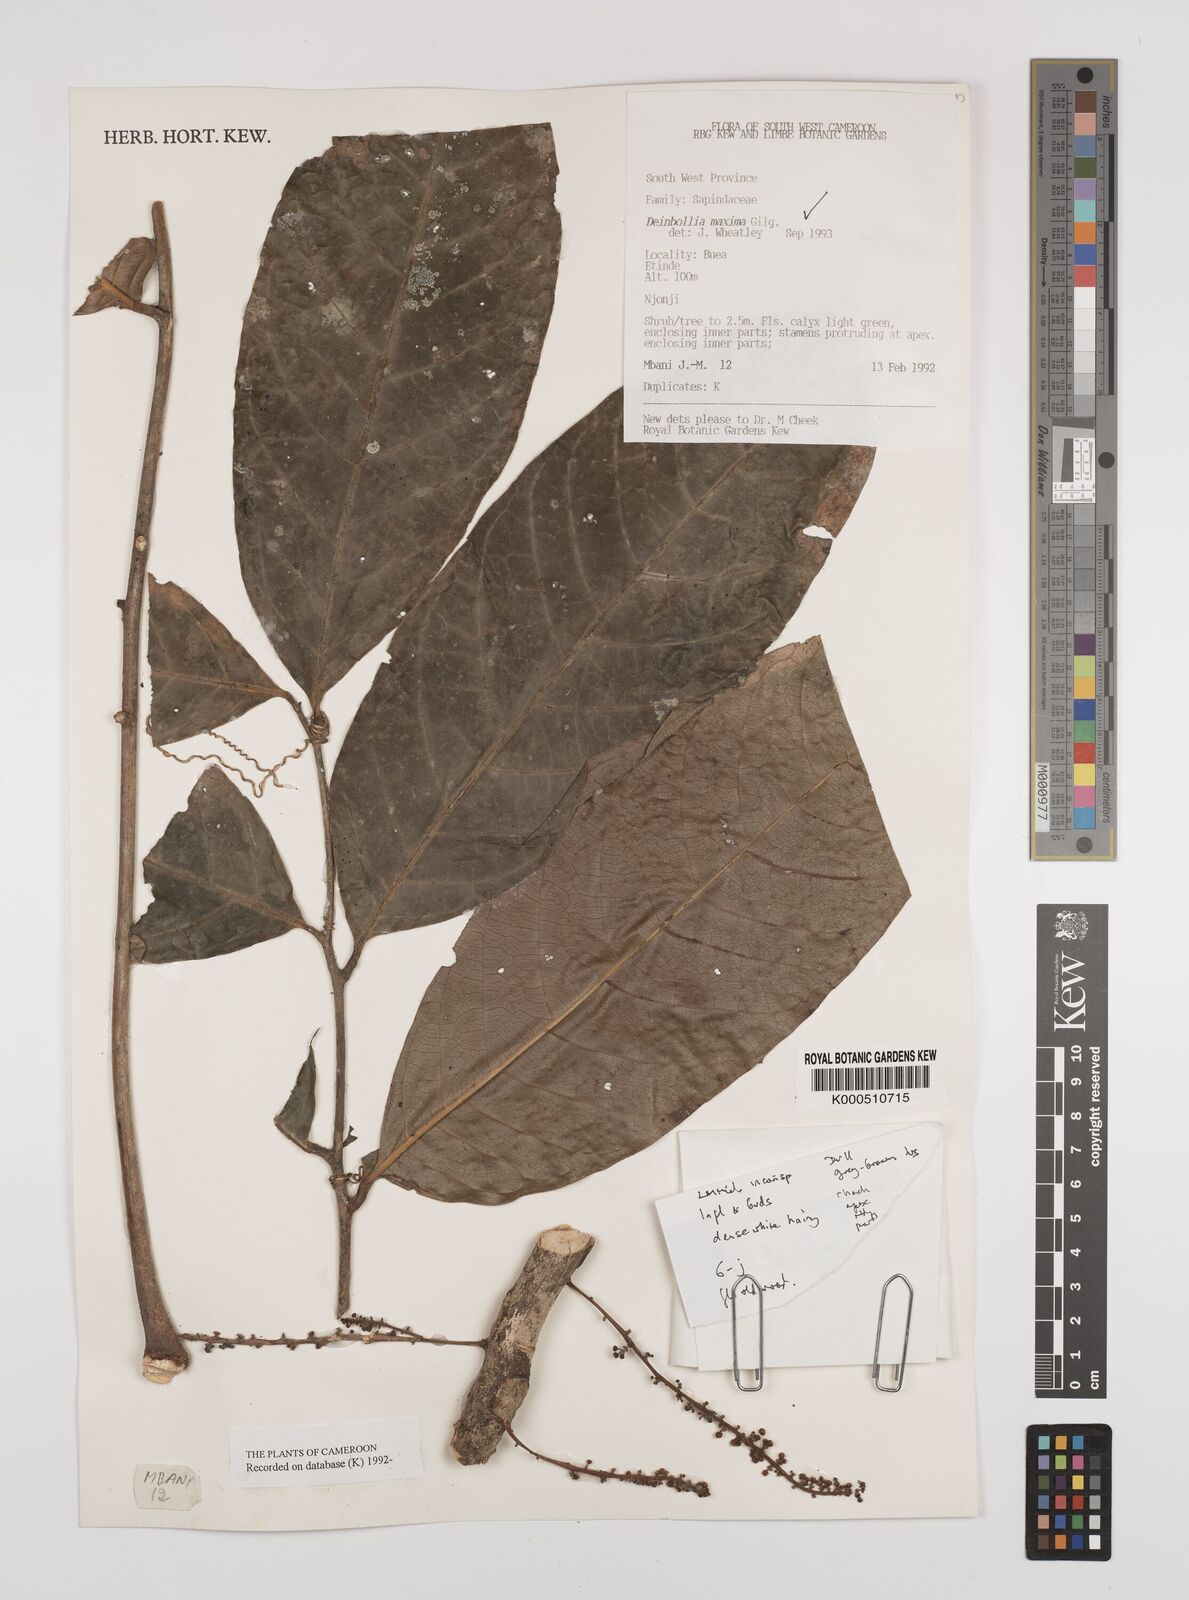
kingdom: Plantae
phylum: Tracheophyta
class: Magnoliopsida
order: Sapindales
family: Sapindaceae
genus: Deinbollia
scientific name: Deinbollia maxima
